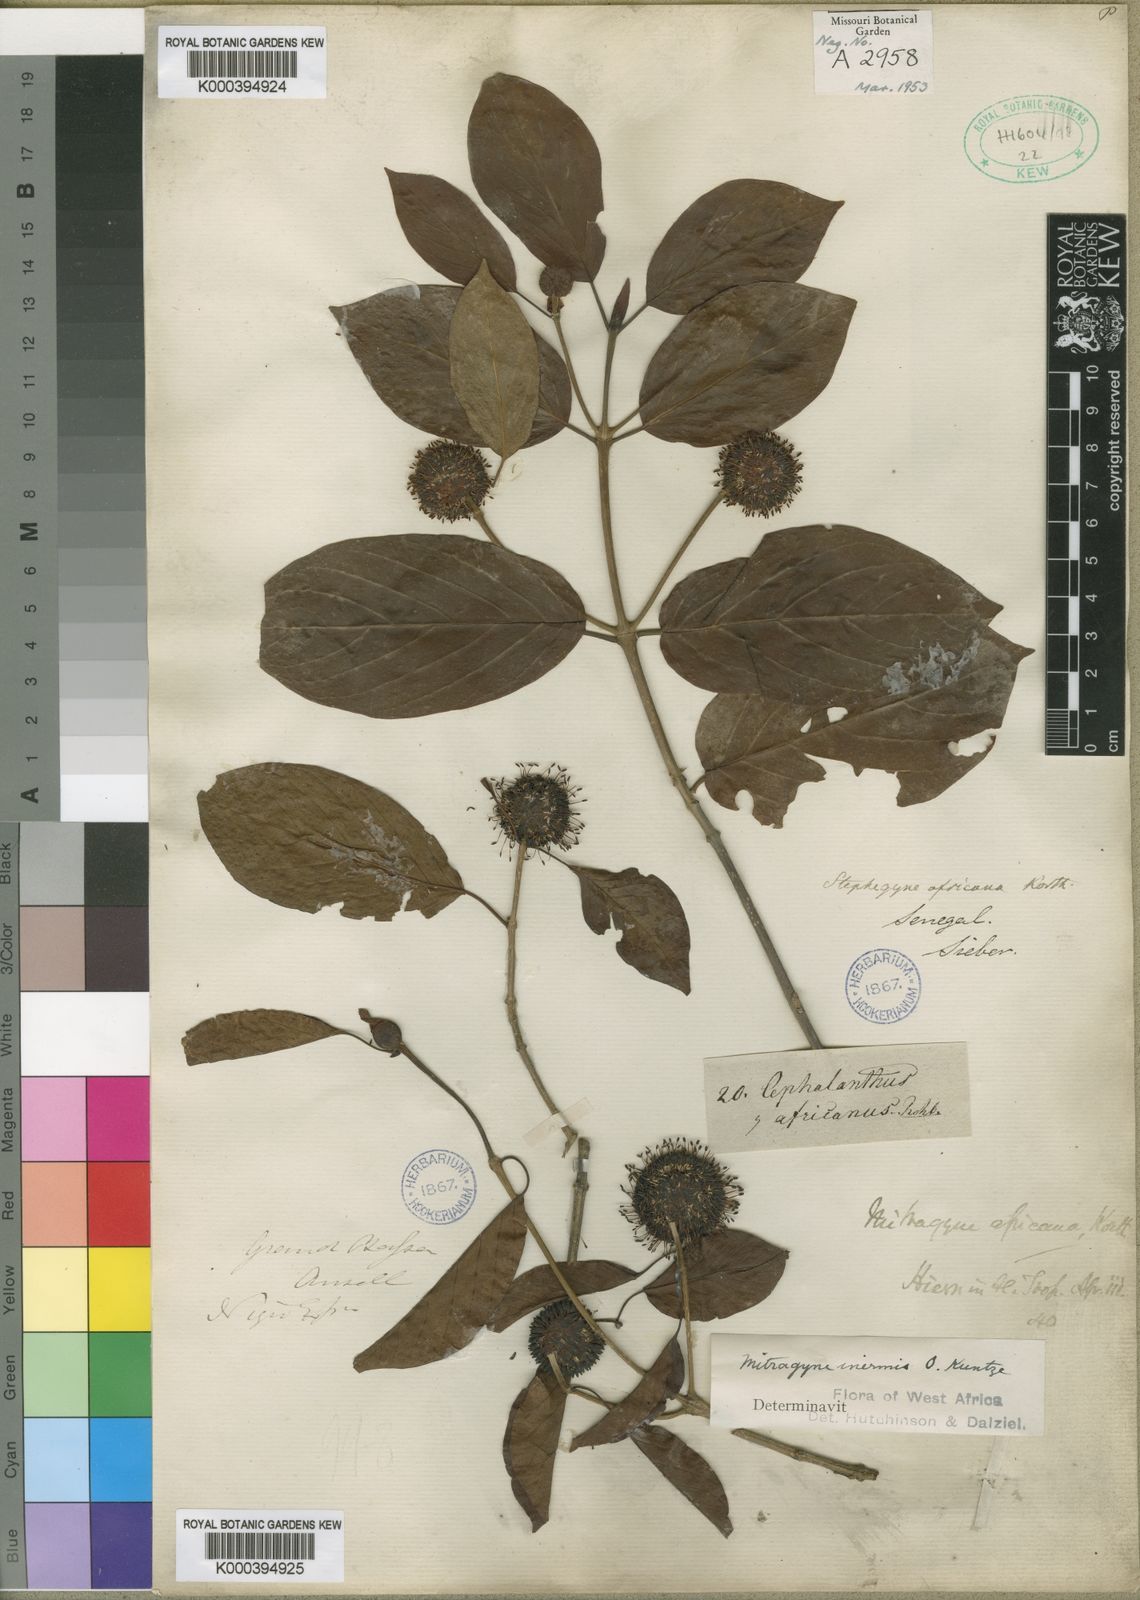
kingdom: Plantae
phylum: Tracheophyta
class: Magnoliopsida
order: Gentianales
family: Rubiaceae
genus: Mitragyna
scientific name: Mitragyna inermis
